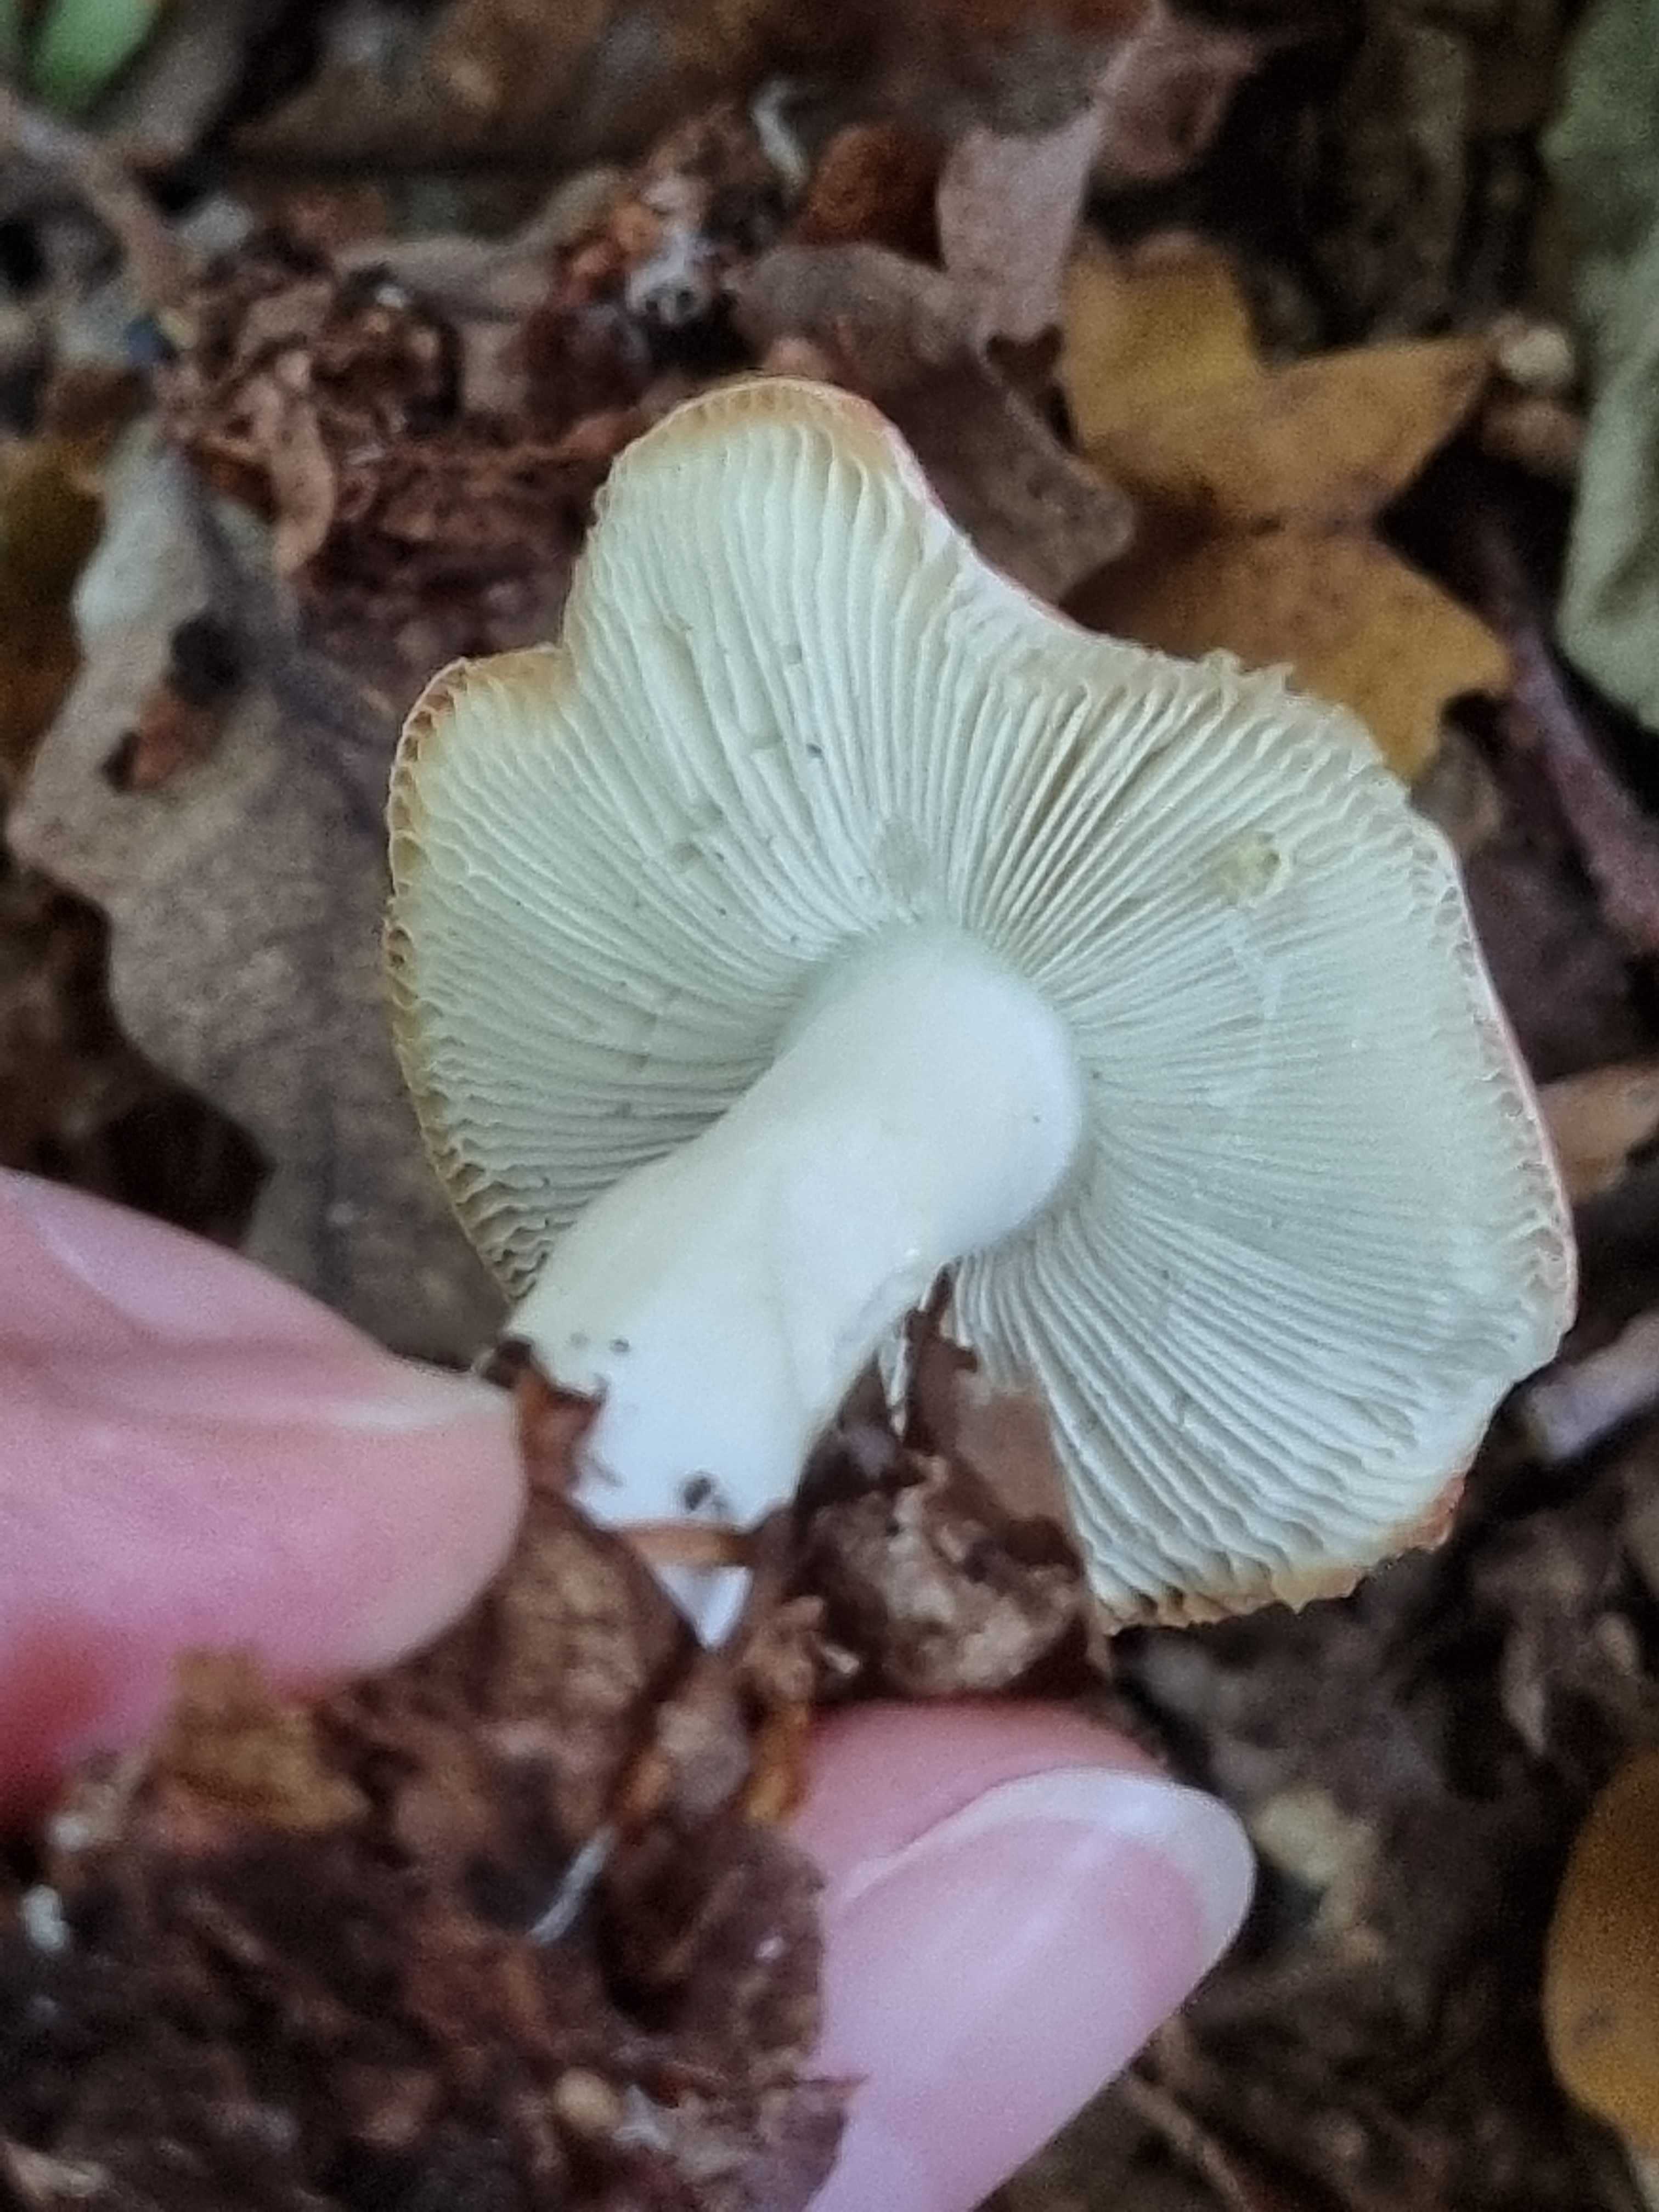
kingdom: Fungi
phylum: Basidiomycota
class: Agaricomycetes
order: Russulales
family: Russulaceae
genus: Russula
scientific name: Russula
